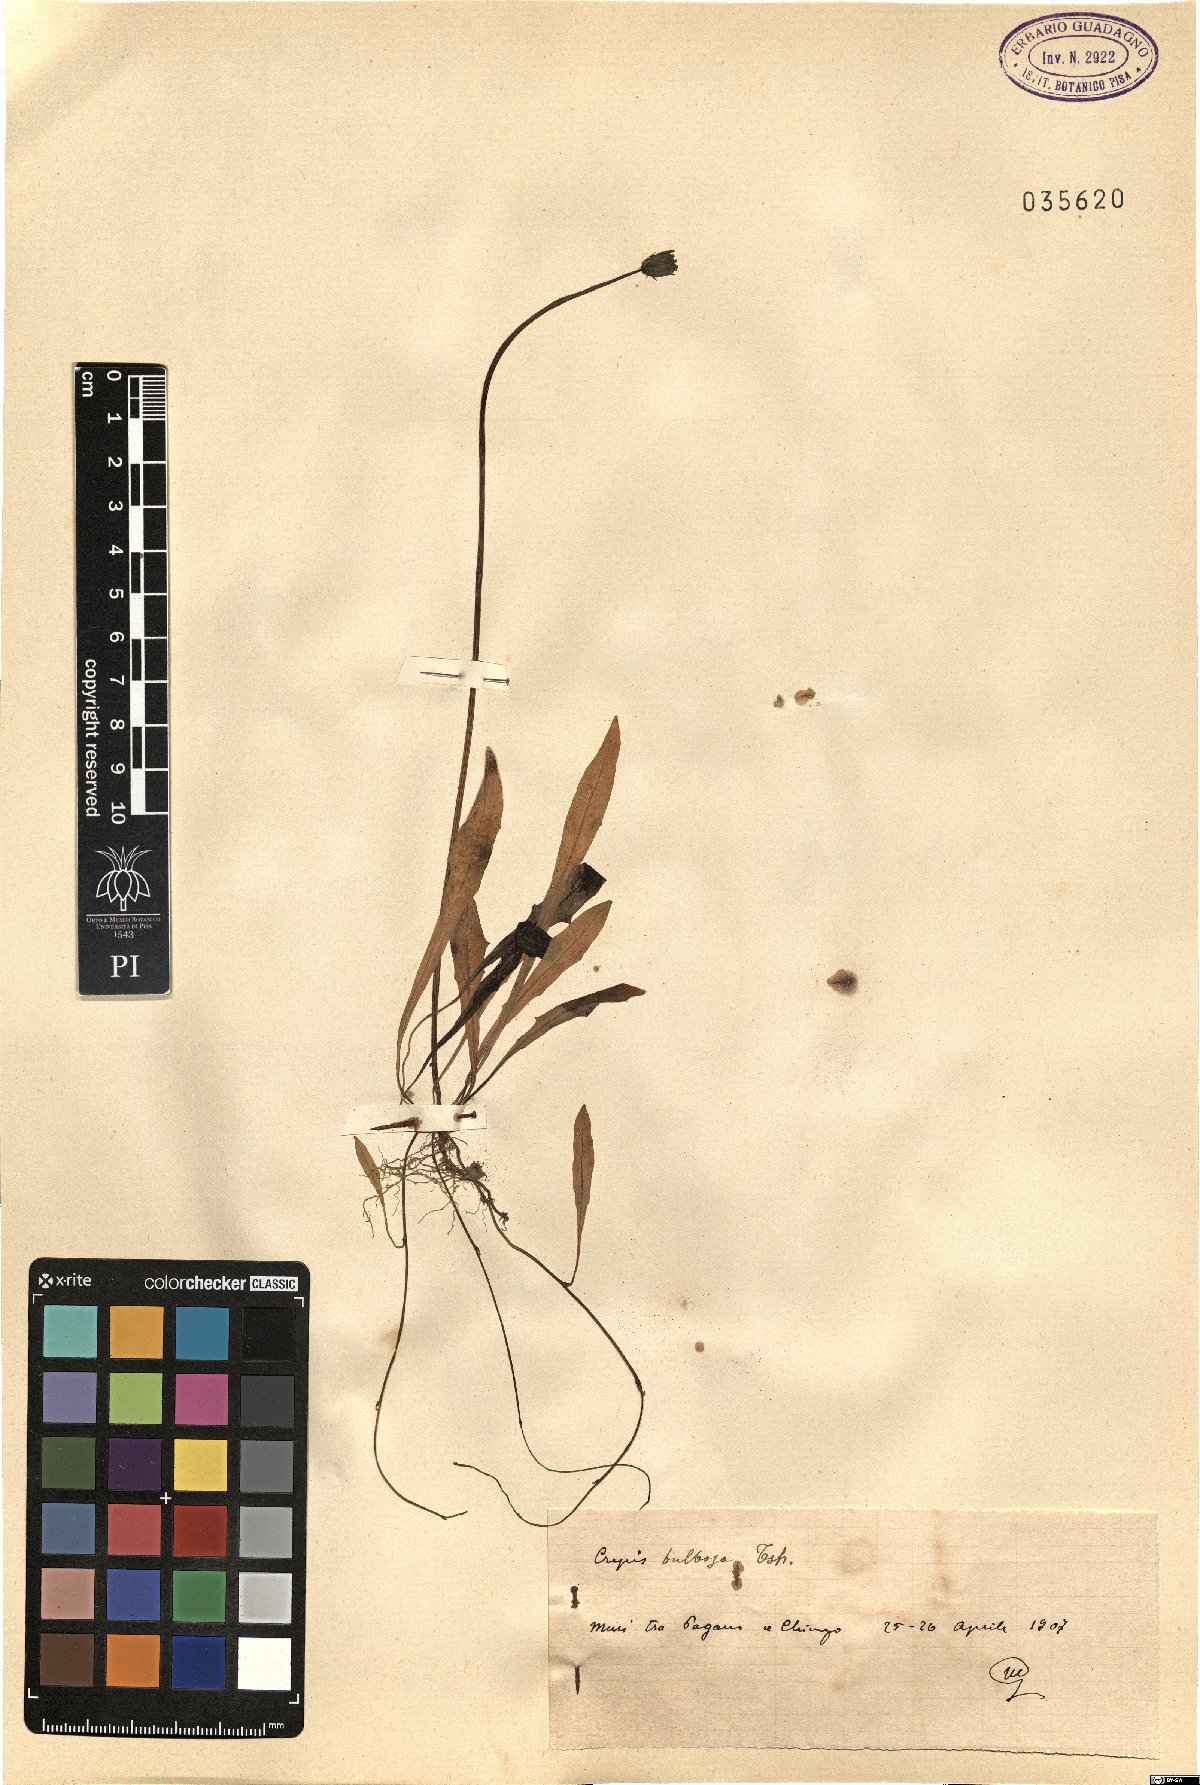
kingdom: Plantae
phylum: Tracheophyta
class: Magnoliopsida
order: Asterales
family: Asteraceae
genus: Aetheorhiza
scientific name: Aetheorhiza bulbosa
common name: Tuberous hawk's-beard
